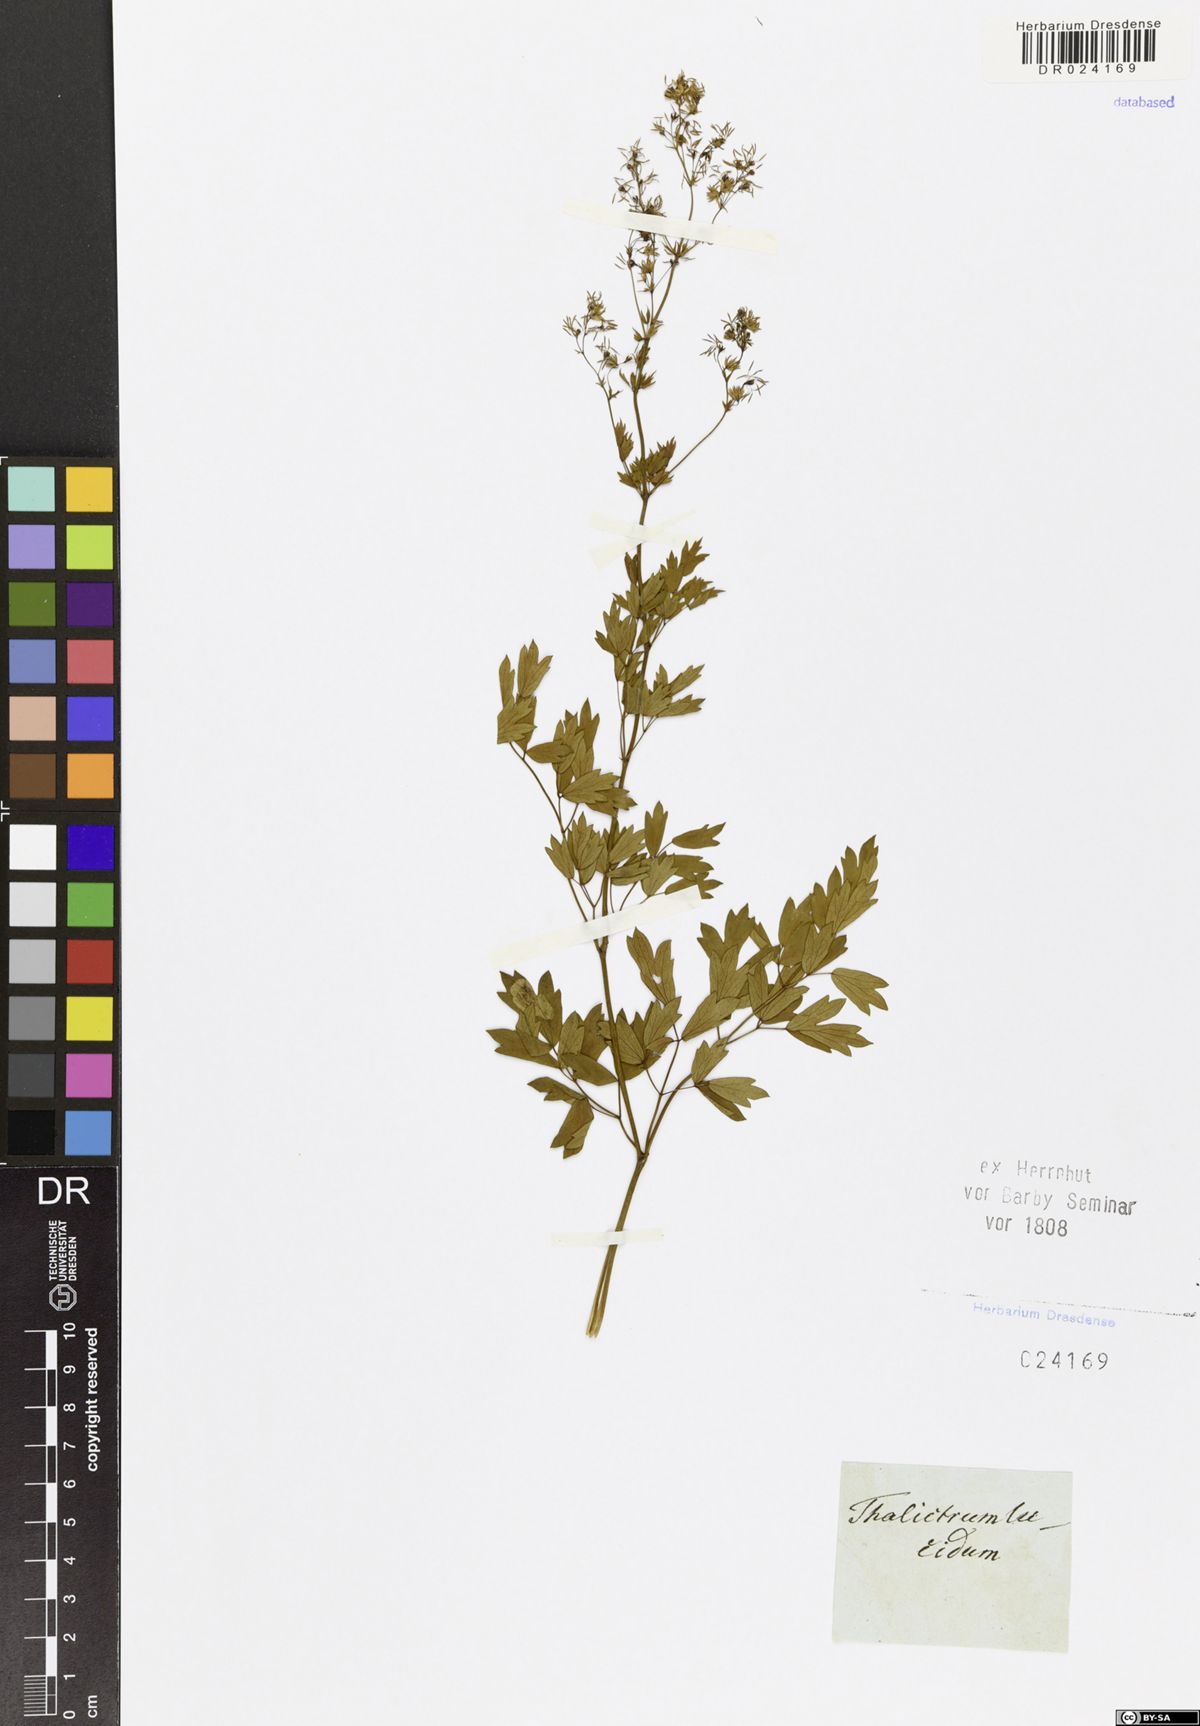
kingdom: Plantae
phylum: Tracheophyta
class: Magnoliopsida
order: Ranunculales
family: Ranunculaceae
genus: Thalictrum
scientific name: Thalictrum lucidum
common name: Shining meadow-rue
